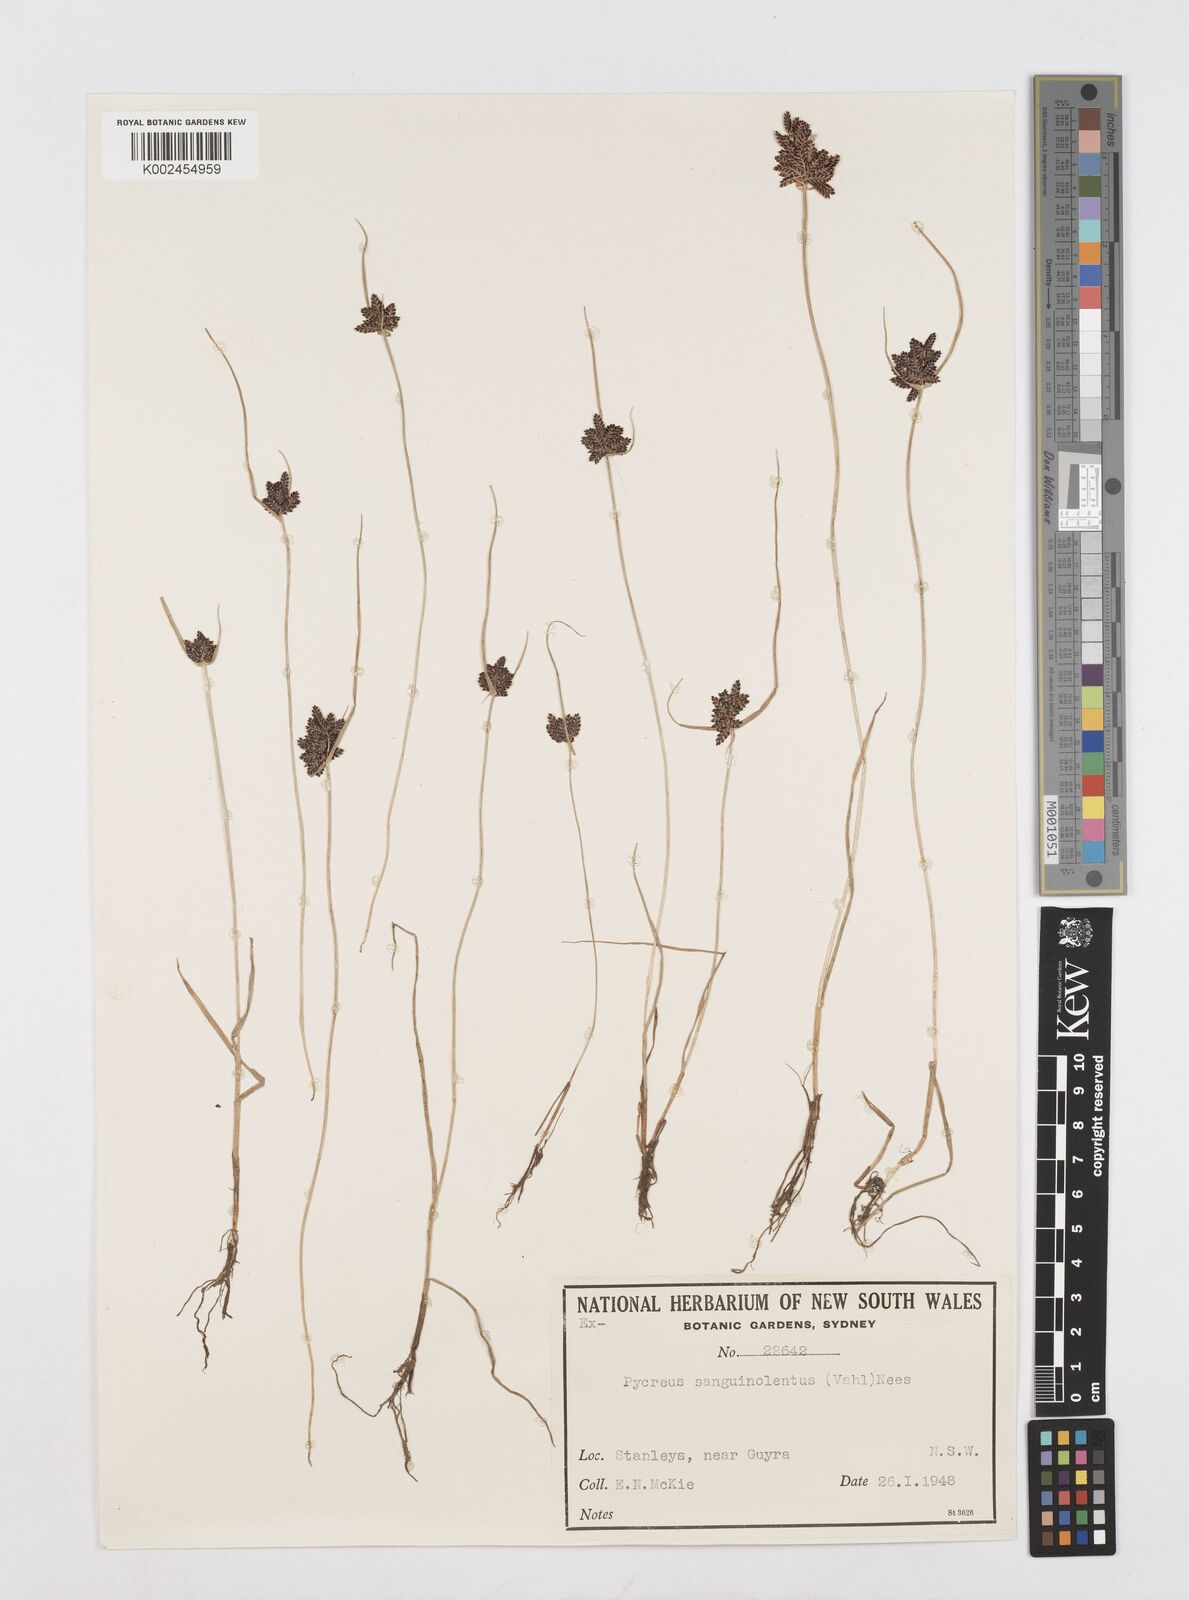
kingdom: Plantae
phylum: Tracheophyta
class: Liliopsida
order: Poales
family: Cyperaceae
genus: Cyperus
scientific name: Cyperus sanguinolentus
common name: Purpleglume flatsedge
